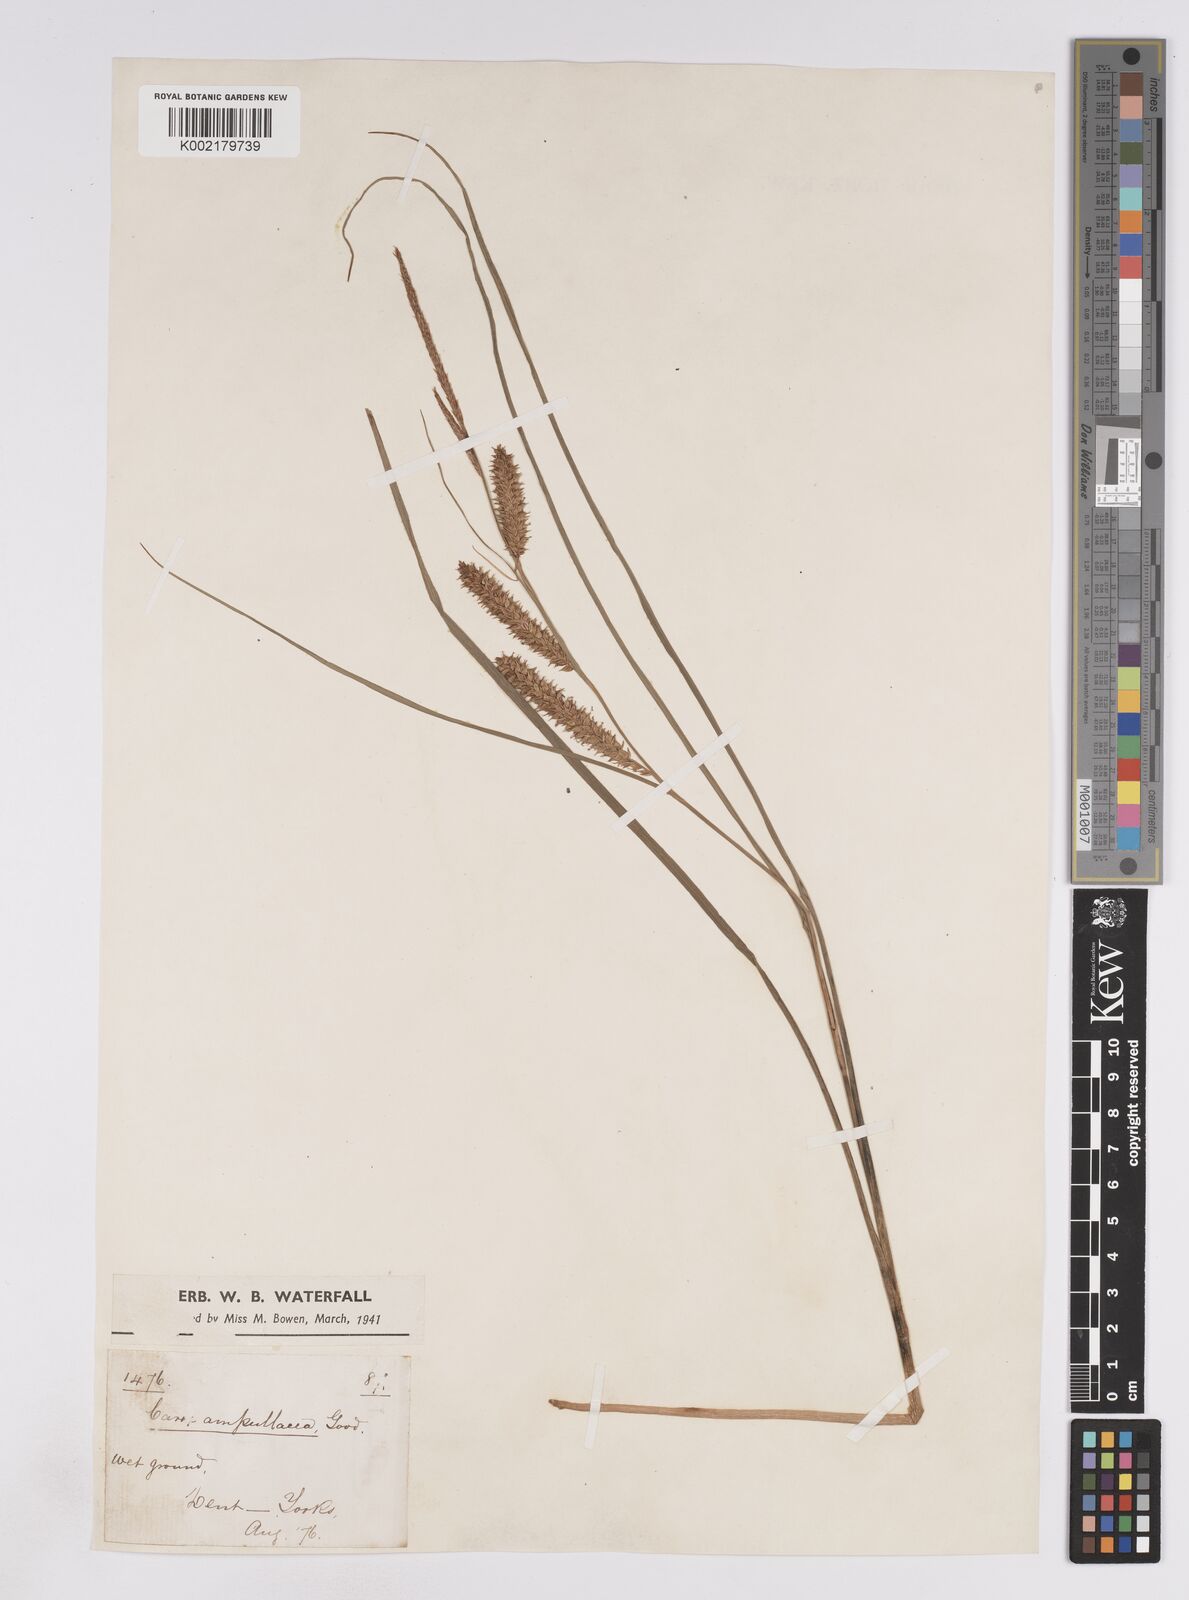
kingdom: Plantae
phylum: Tracheophyta
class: Liliopsida
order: Poales
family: Cyperaceae
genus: Carex
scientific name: Carex rostrata
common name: Bottle sedge
